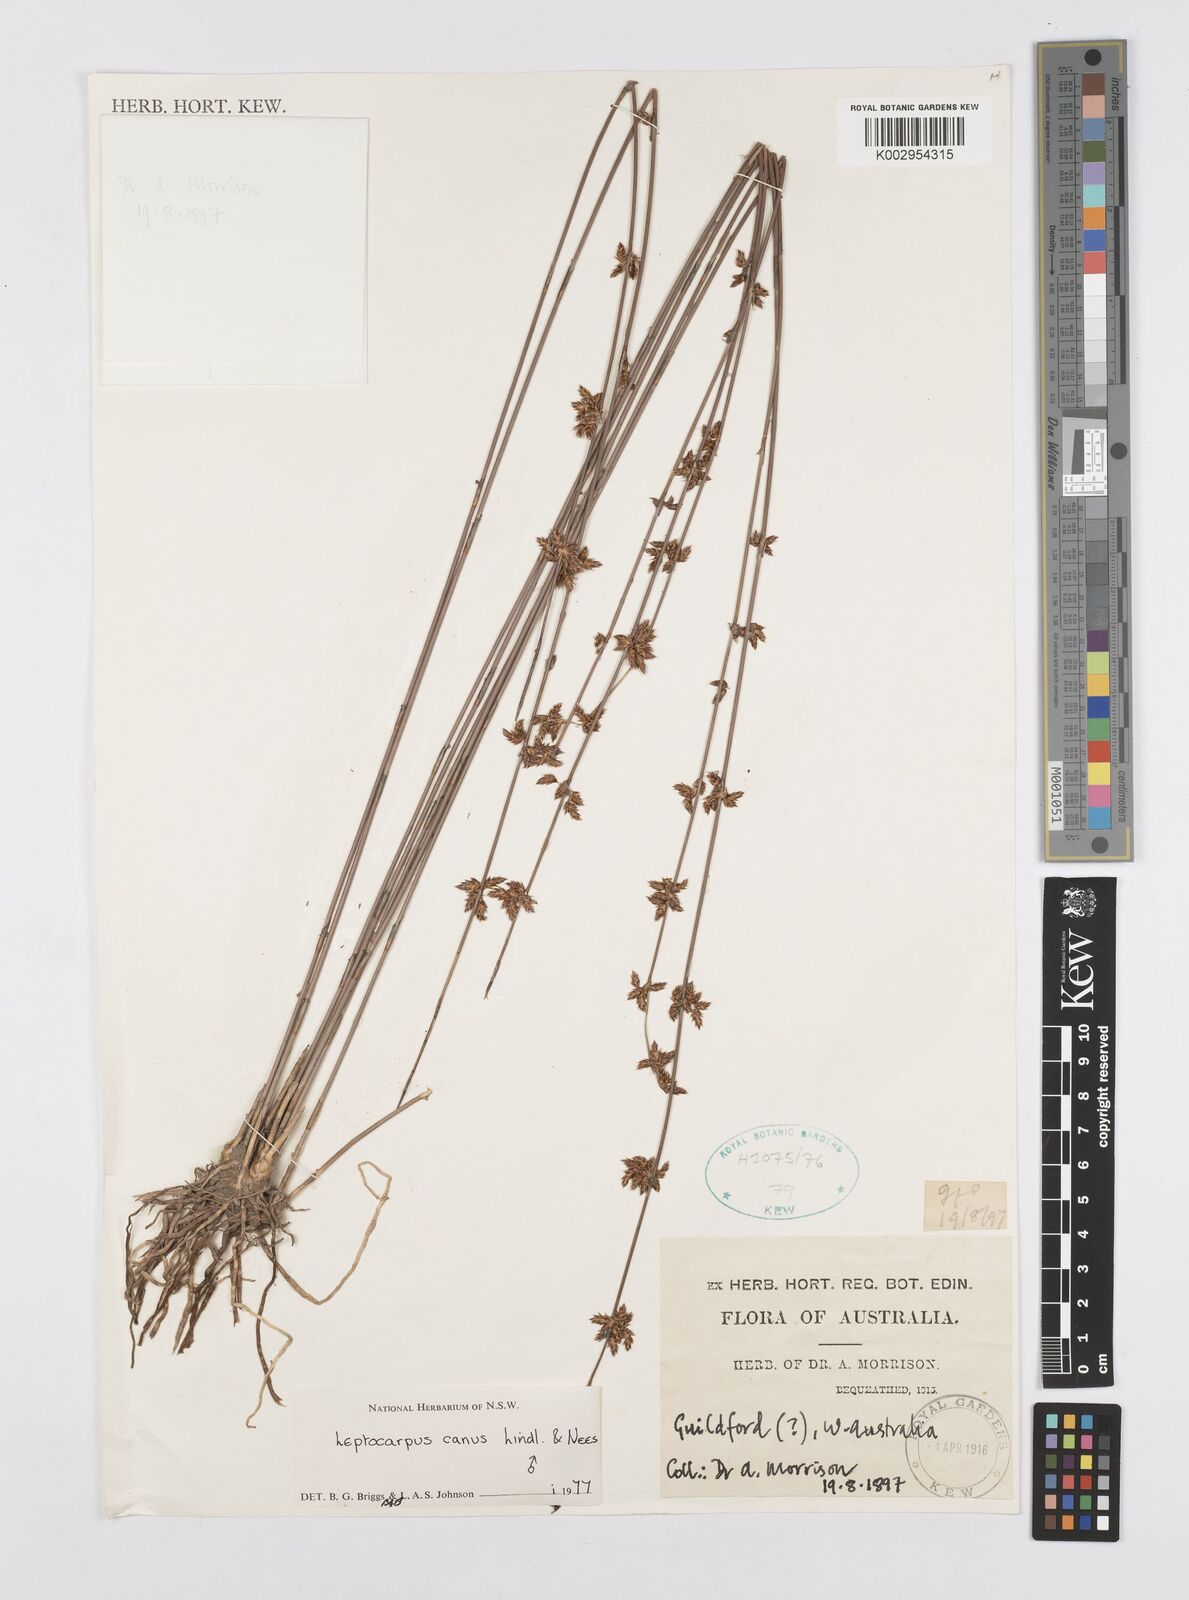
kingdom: Plantae
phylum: Tracheophyta
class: Liliopsida
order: Poales
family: Restionaceae
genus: Leptocarpus
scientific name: Leptocarpus canus
